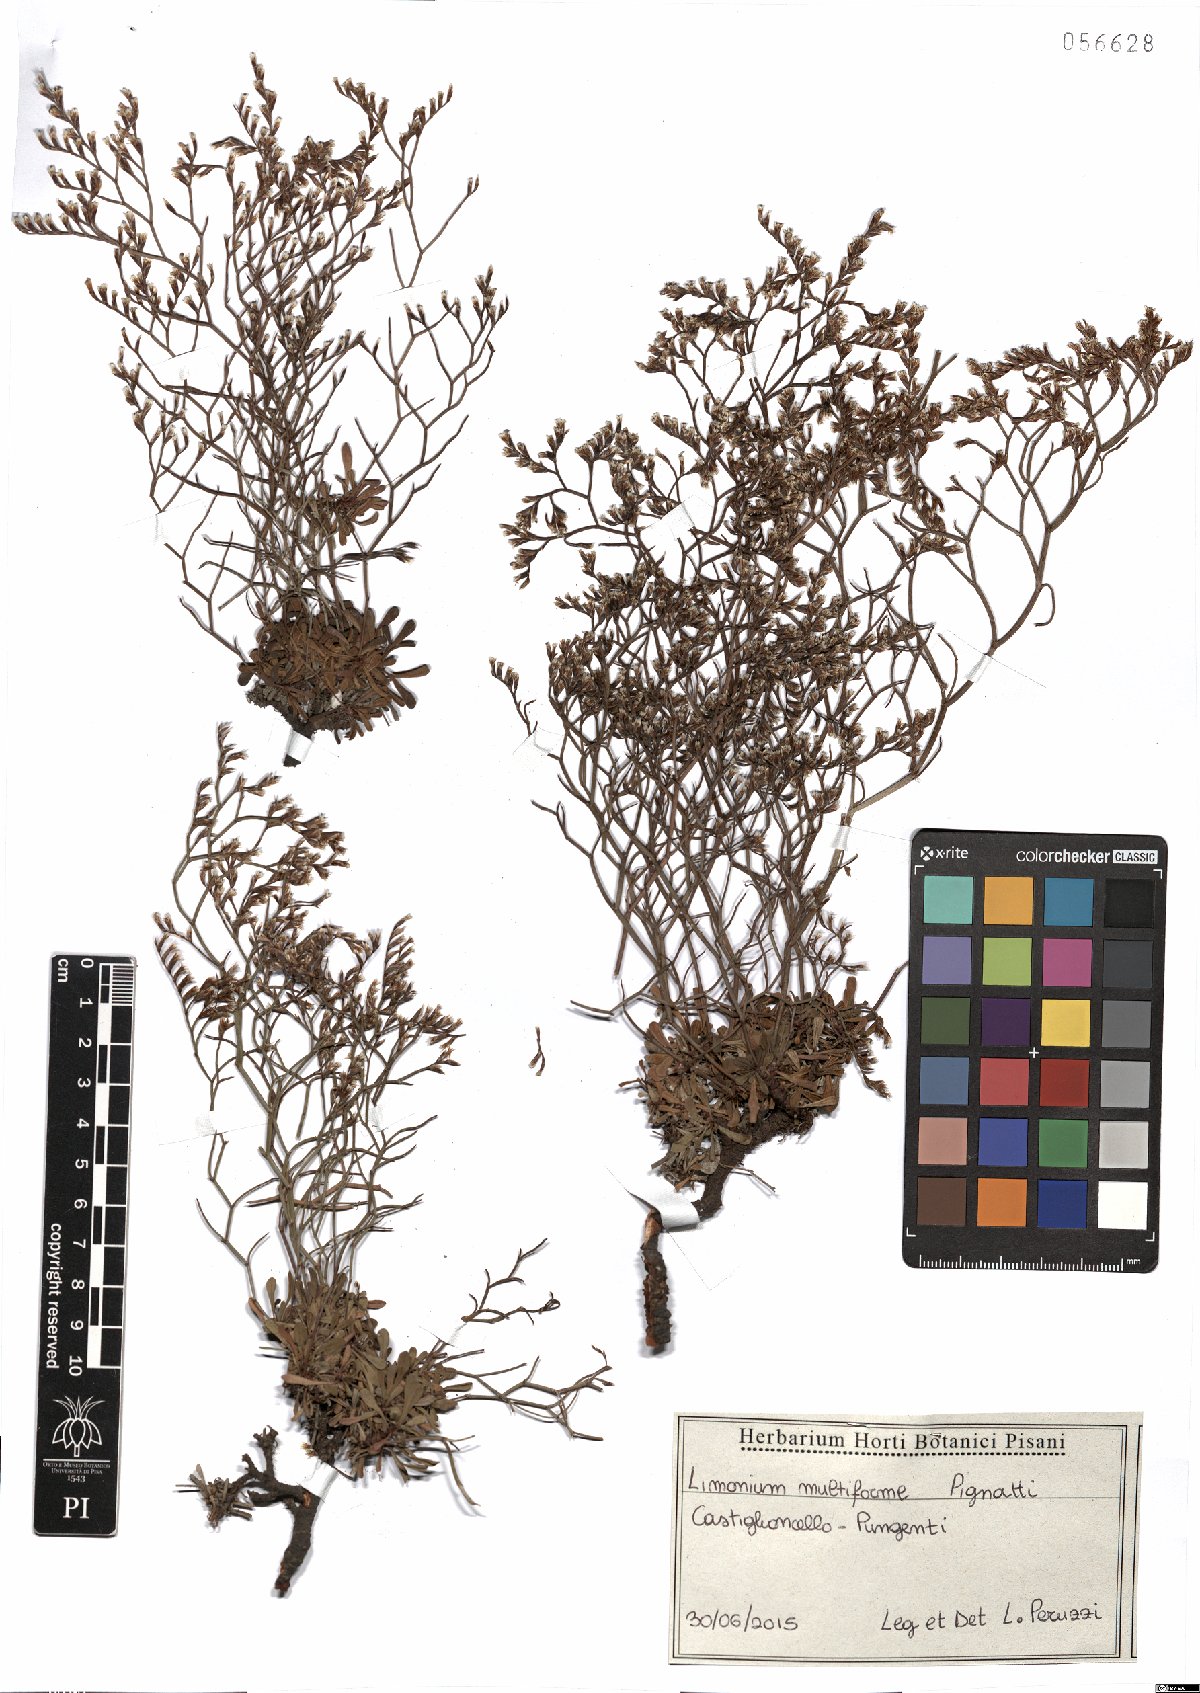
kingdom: Plantae
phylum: Tracheophyta
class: Magnoliopsida
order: Caryophyllales
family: Plumbaginaceae
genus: Limonium
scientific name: Limonium multiforme
